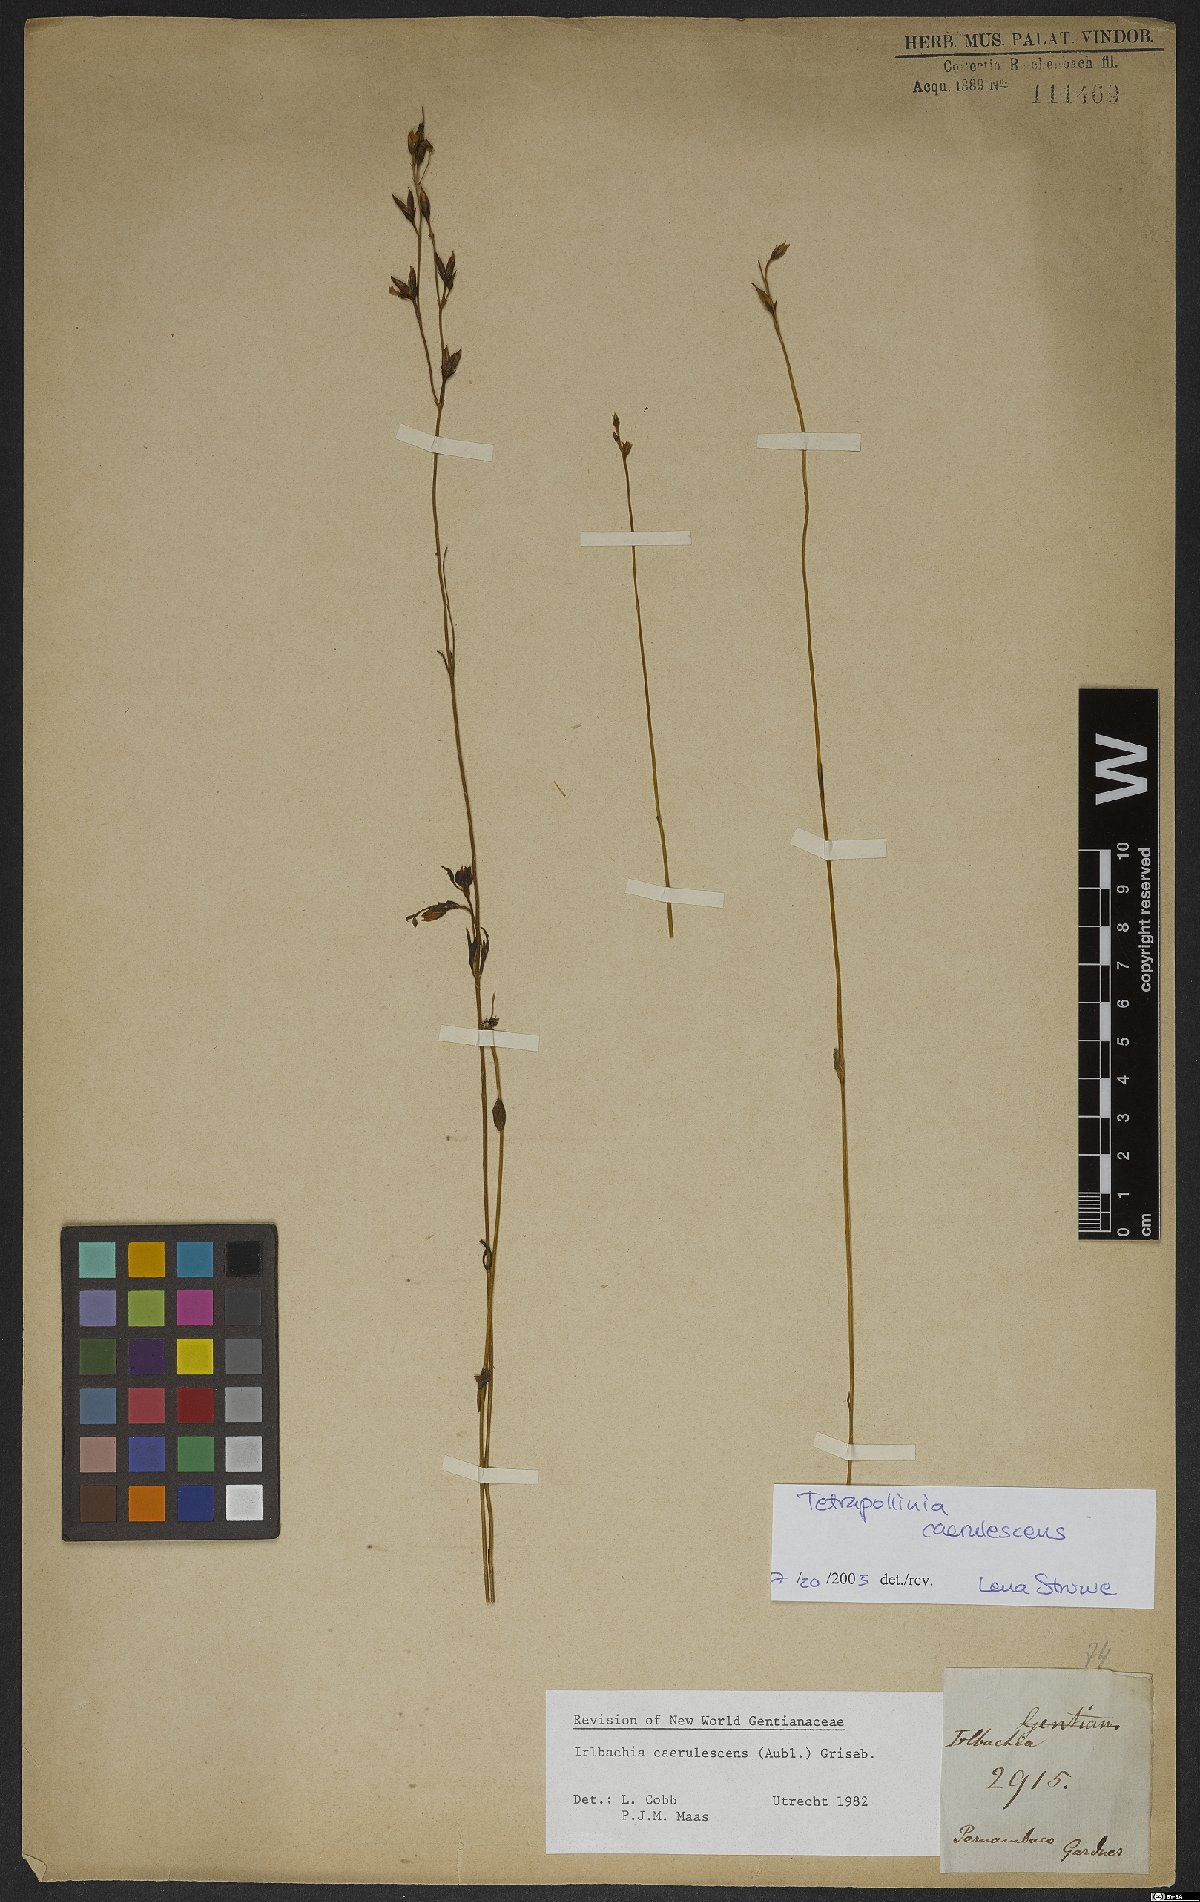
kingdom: Plantae
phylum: Tracheophyta
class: Magnoliopsida
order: Gentianales
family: Gentianaceae
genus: Tetrapollinia
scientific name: Tetrapollinia caerulescens
